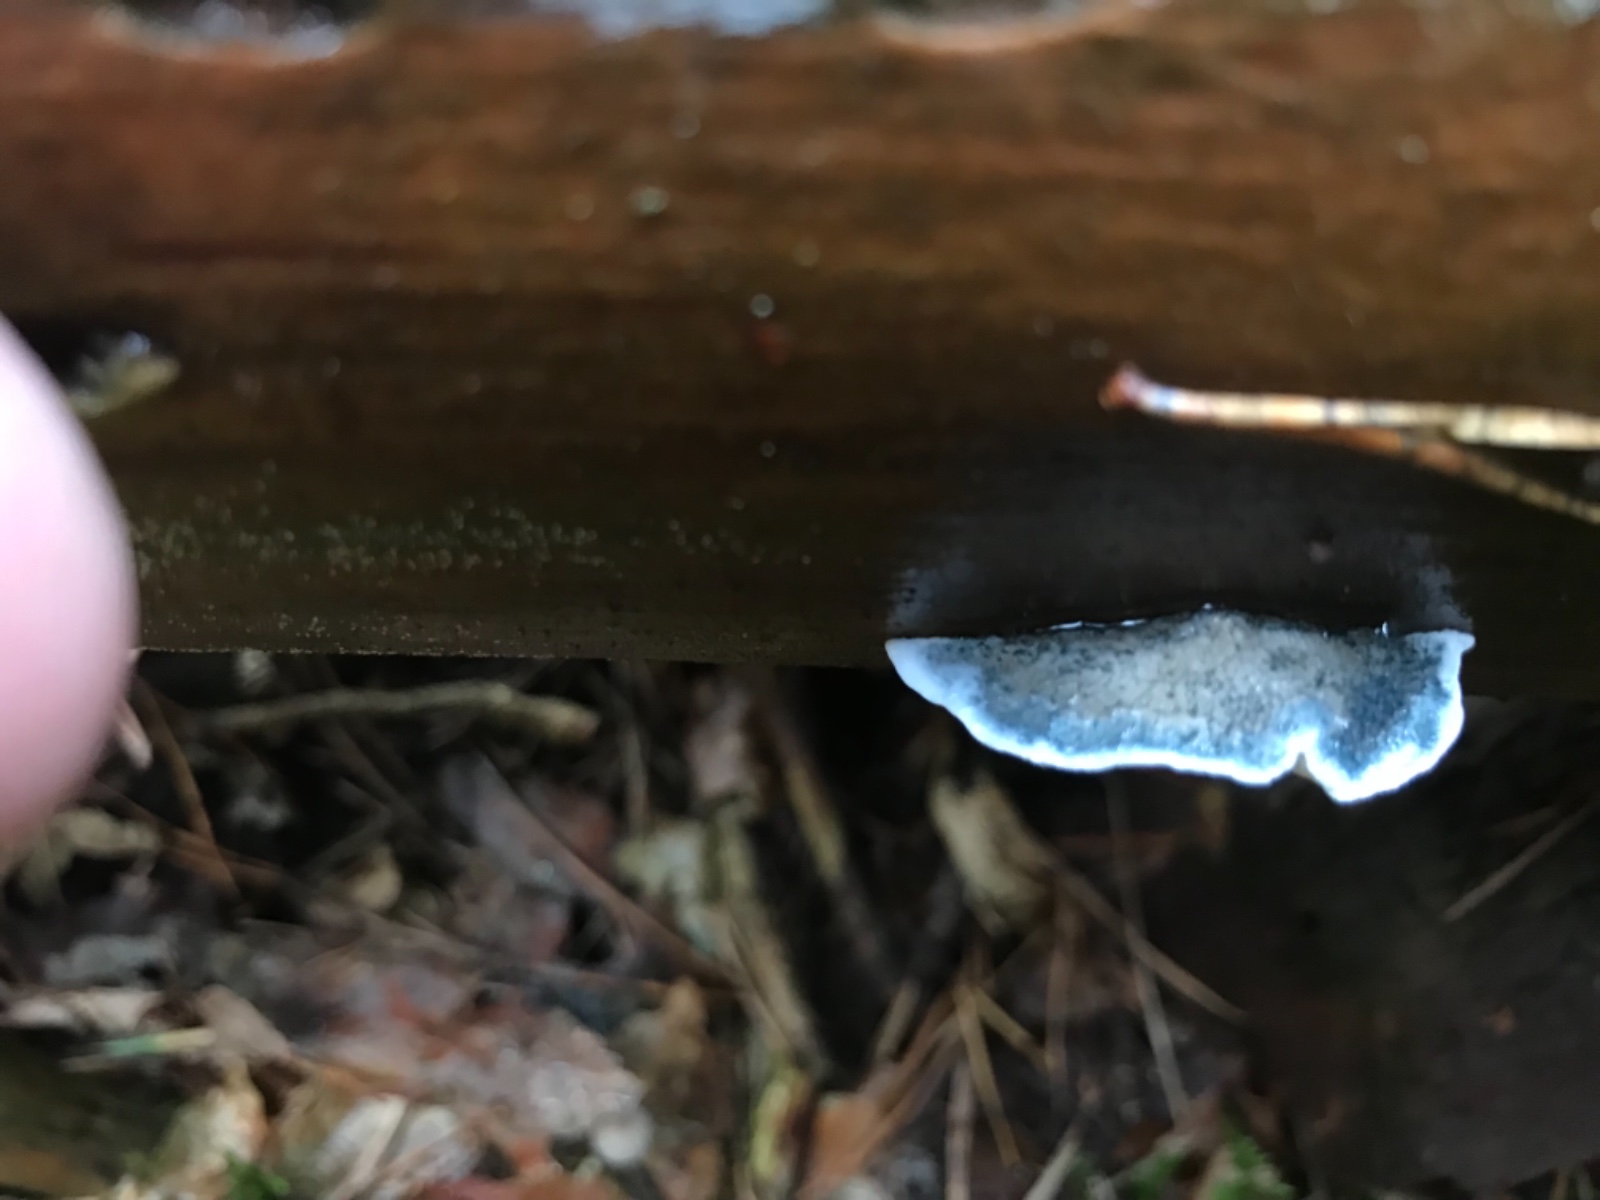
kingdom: Fungi
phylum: Basidiomycota
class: Agaricomycetes
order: Polyporales
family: Polyporaceae
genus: Cyanosporus
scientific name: Cyanosporus caesius
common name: blålig kødporesvamp
